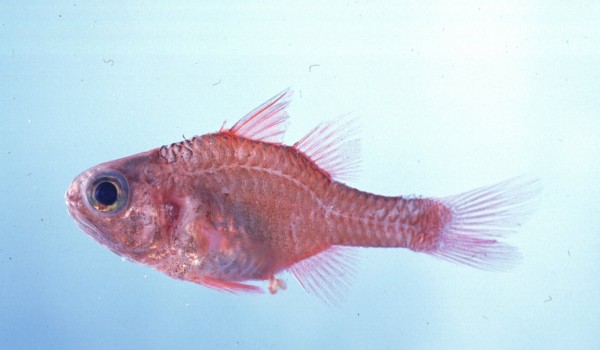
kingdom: Animalia
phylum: Chordata
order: Perciformes
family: Apogonidae
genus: Apogon
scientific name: Apogon coccineus
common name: Ruby cardinalfish
